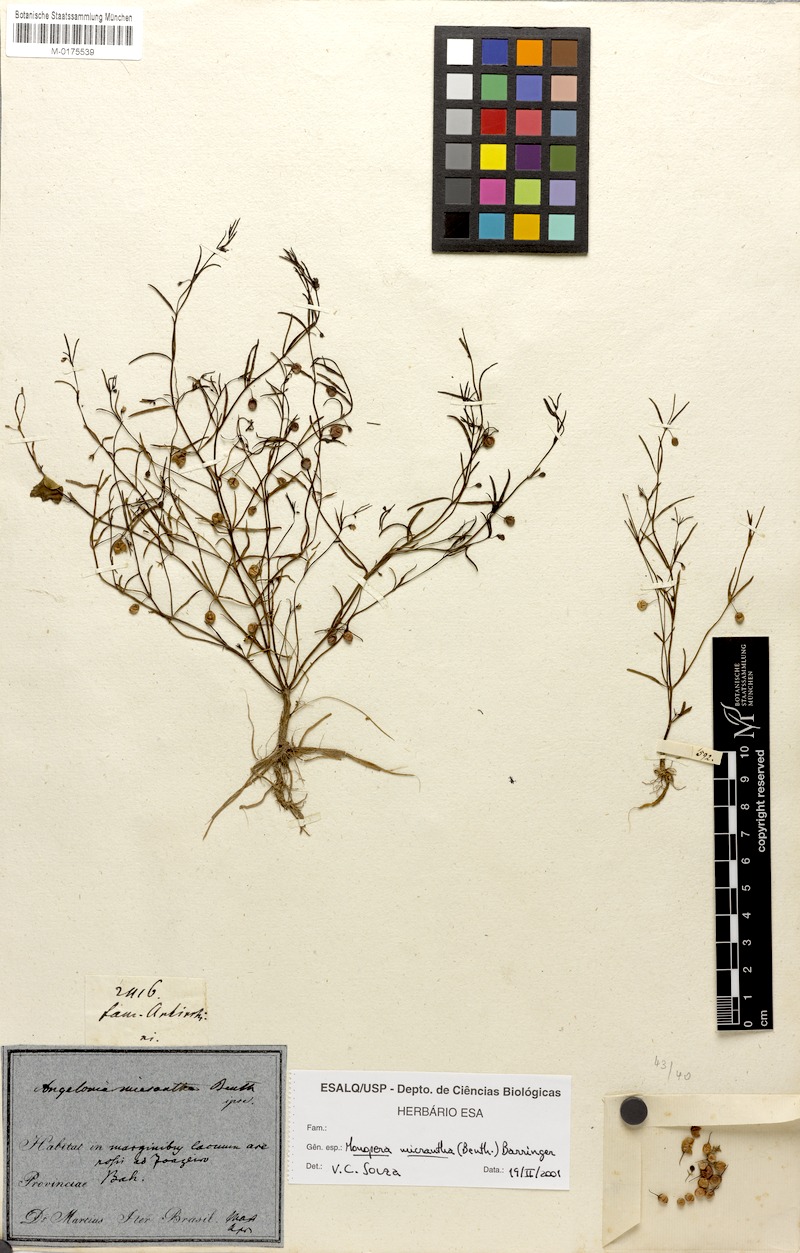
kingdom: Plantae
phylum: Tracheophyta
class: Magnoliopsida
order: Lamiales
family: Plantaginaceae
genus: Angelonia
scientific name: Angelonia micrantha
